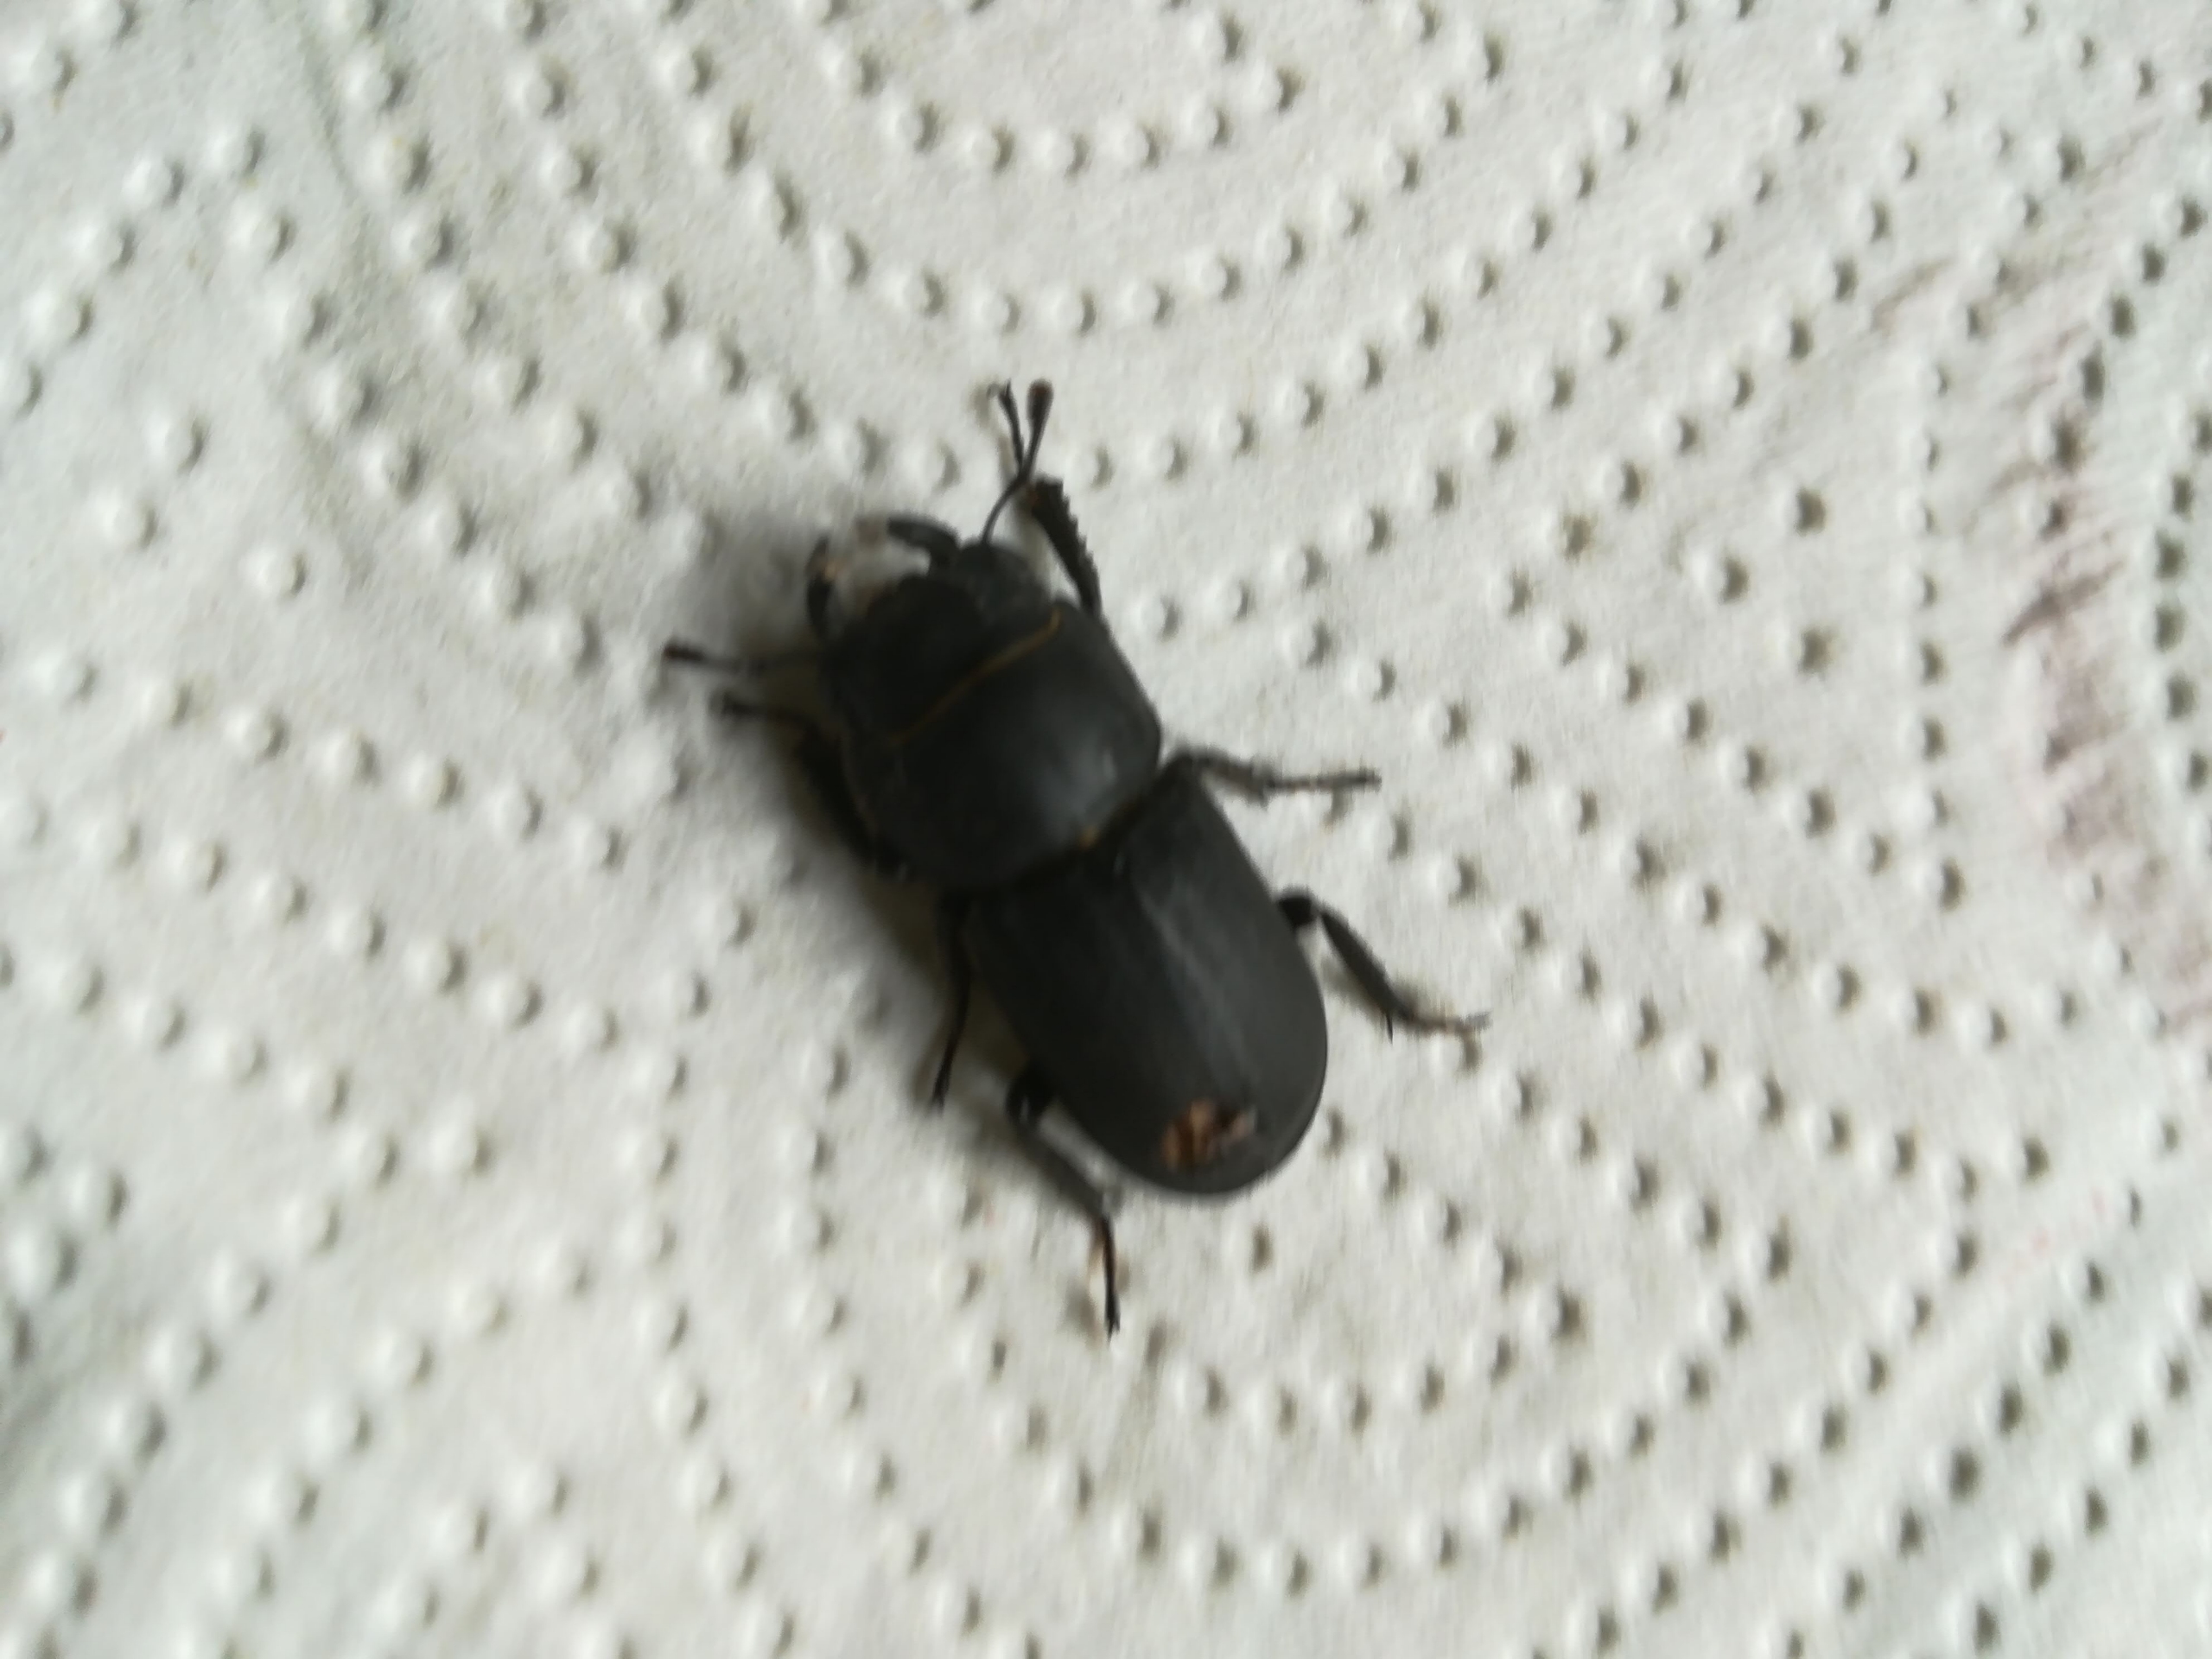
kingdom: Animalia
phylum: Arthropoda
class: Insecta
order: Coleoptera
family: Lucanidae
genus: Dorcus
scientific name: Dorcus parallelipipedus
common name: Bøghjort
